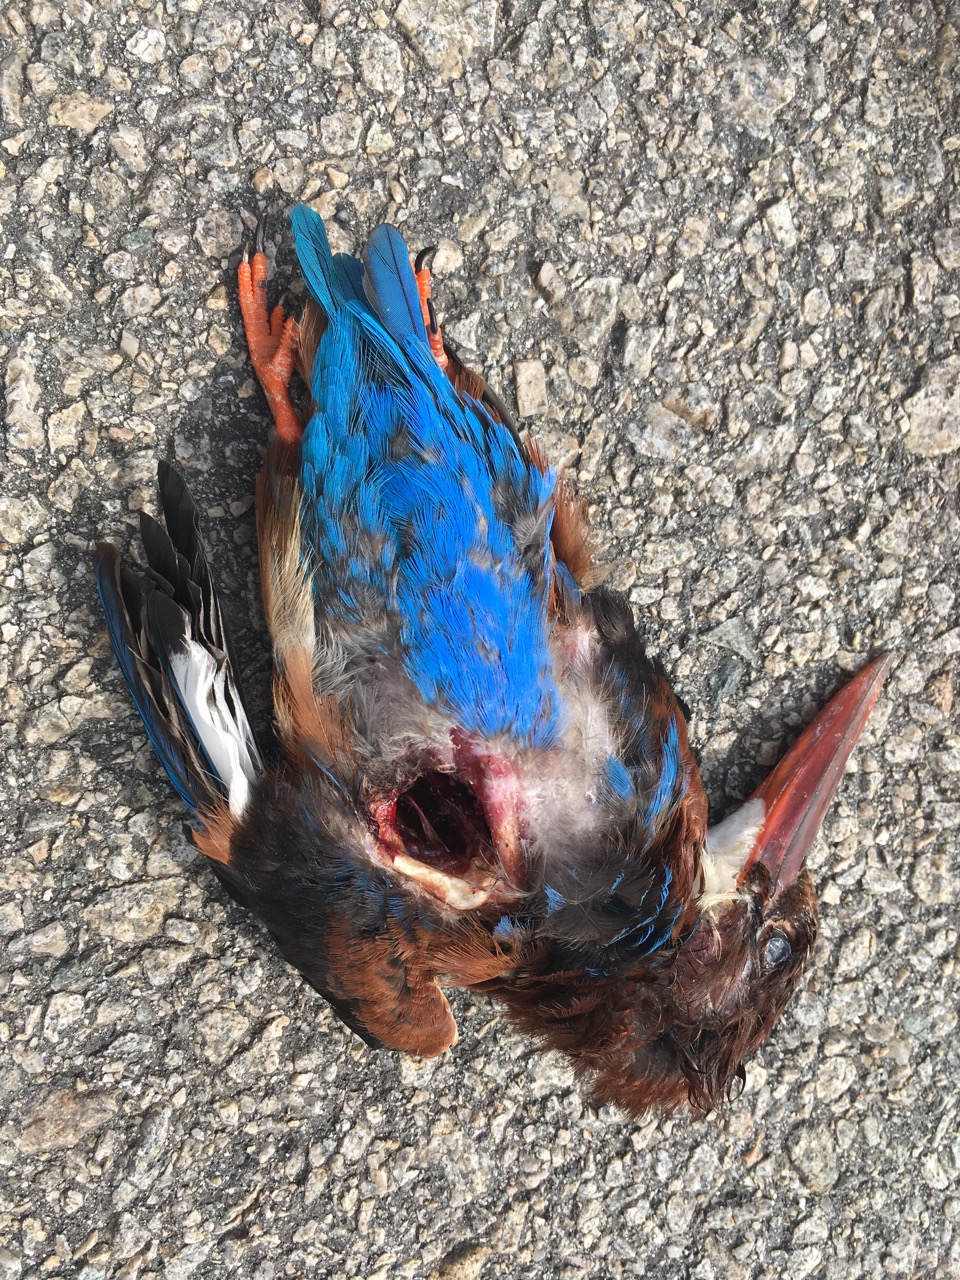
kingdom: Animalia
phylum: Chordata
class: Aves
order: Coraciiformes
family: Alcedinidae
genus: Halcyon
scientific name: Halcyon smyrnensis
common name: White-throated kingfisher
